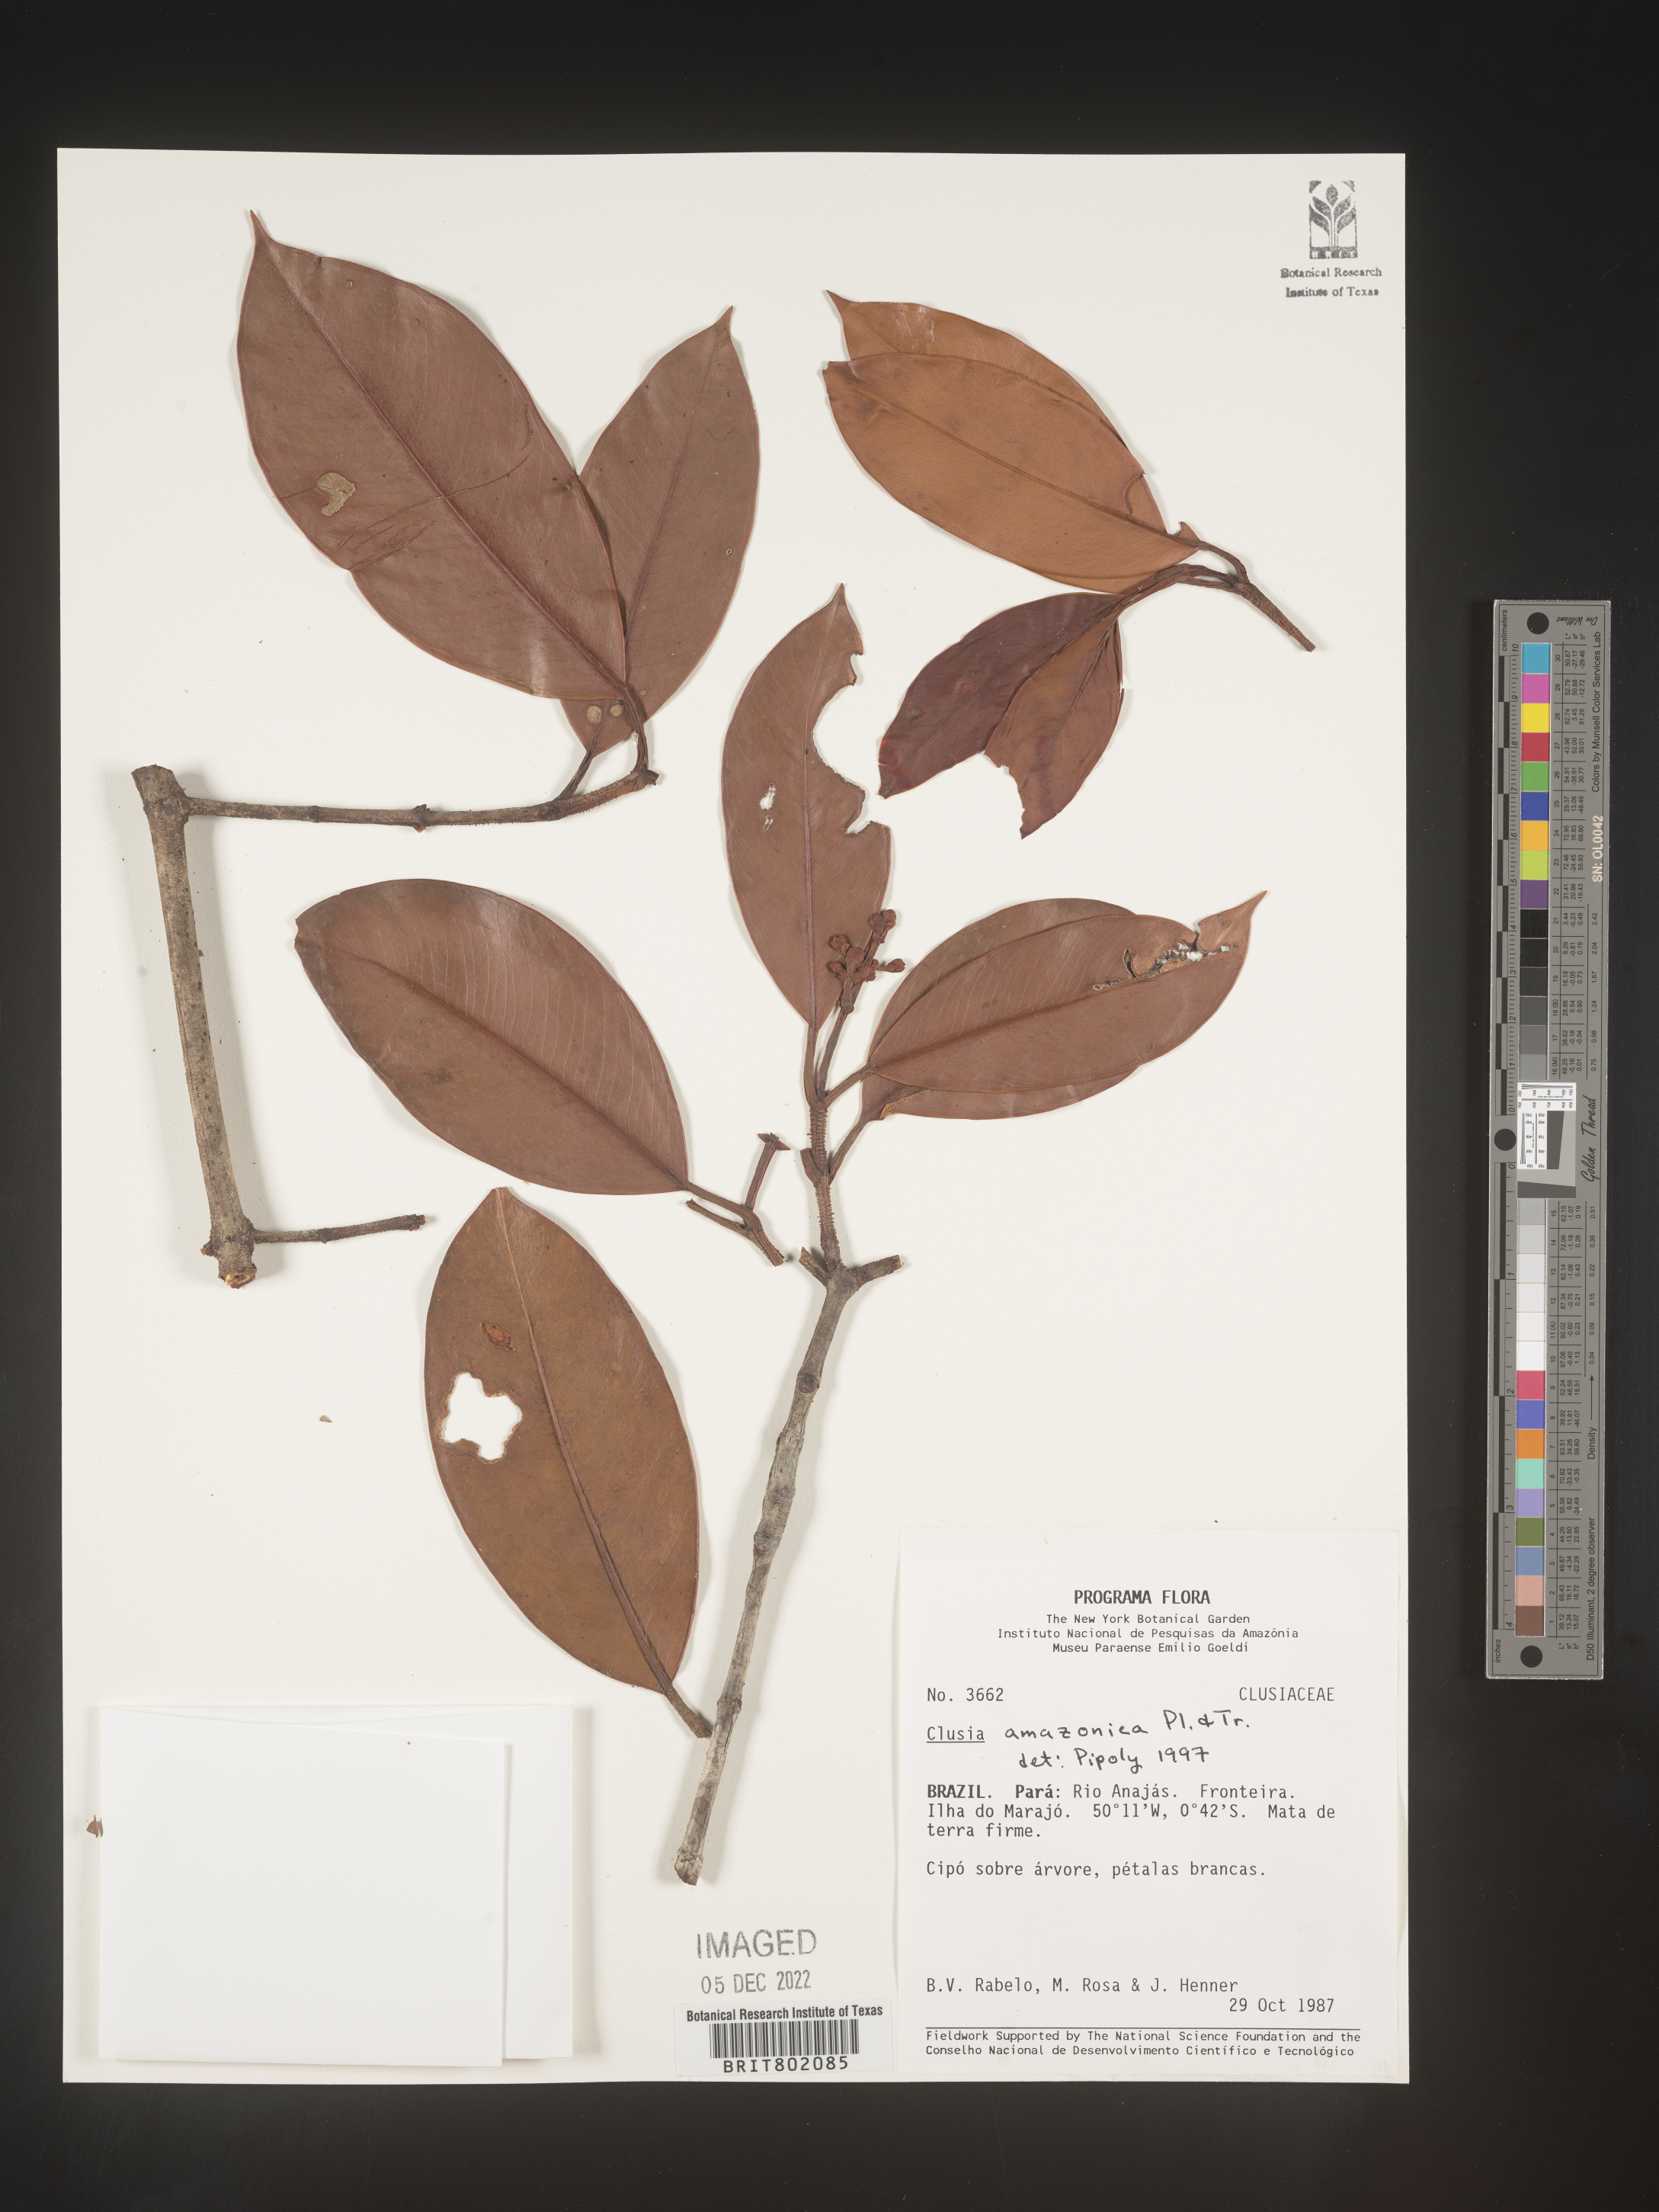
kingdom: Plantae
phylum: Tracheophyta
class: Magnoliopsida
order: Malpighiales
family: Clusiaceae
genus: Clusia
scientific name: Clusia amazonica
